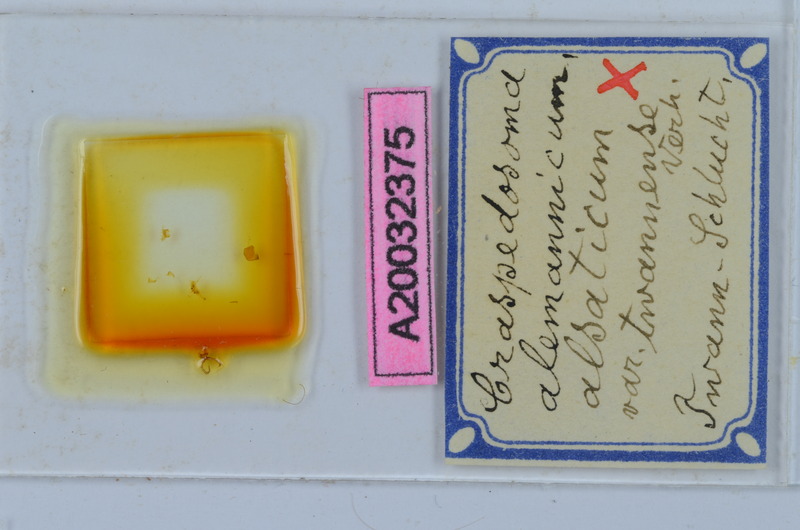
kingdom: Animalia
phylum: Arthropoda
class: Diplopoda
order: Chordeumatida
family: Craspedosomatidae
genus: Craspedosoma
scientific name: Craspedosoma rawlinsii
